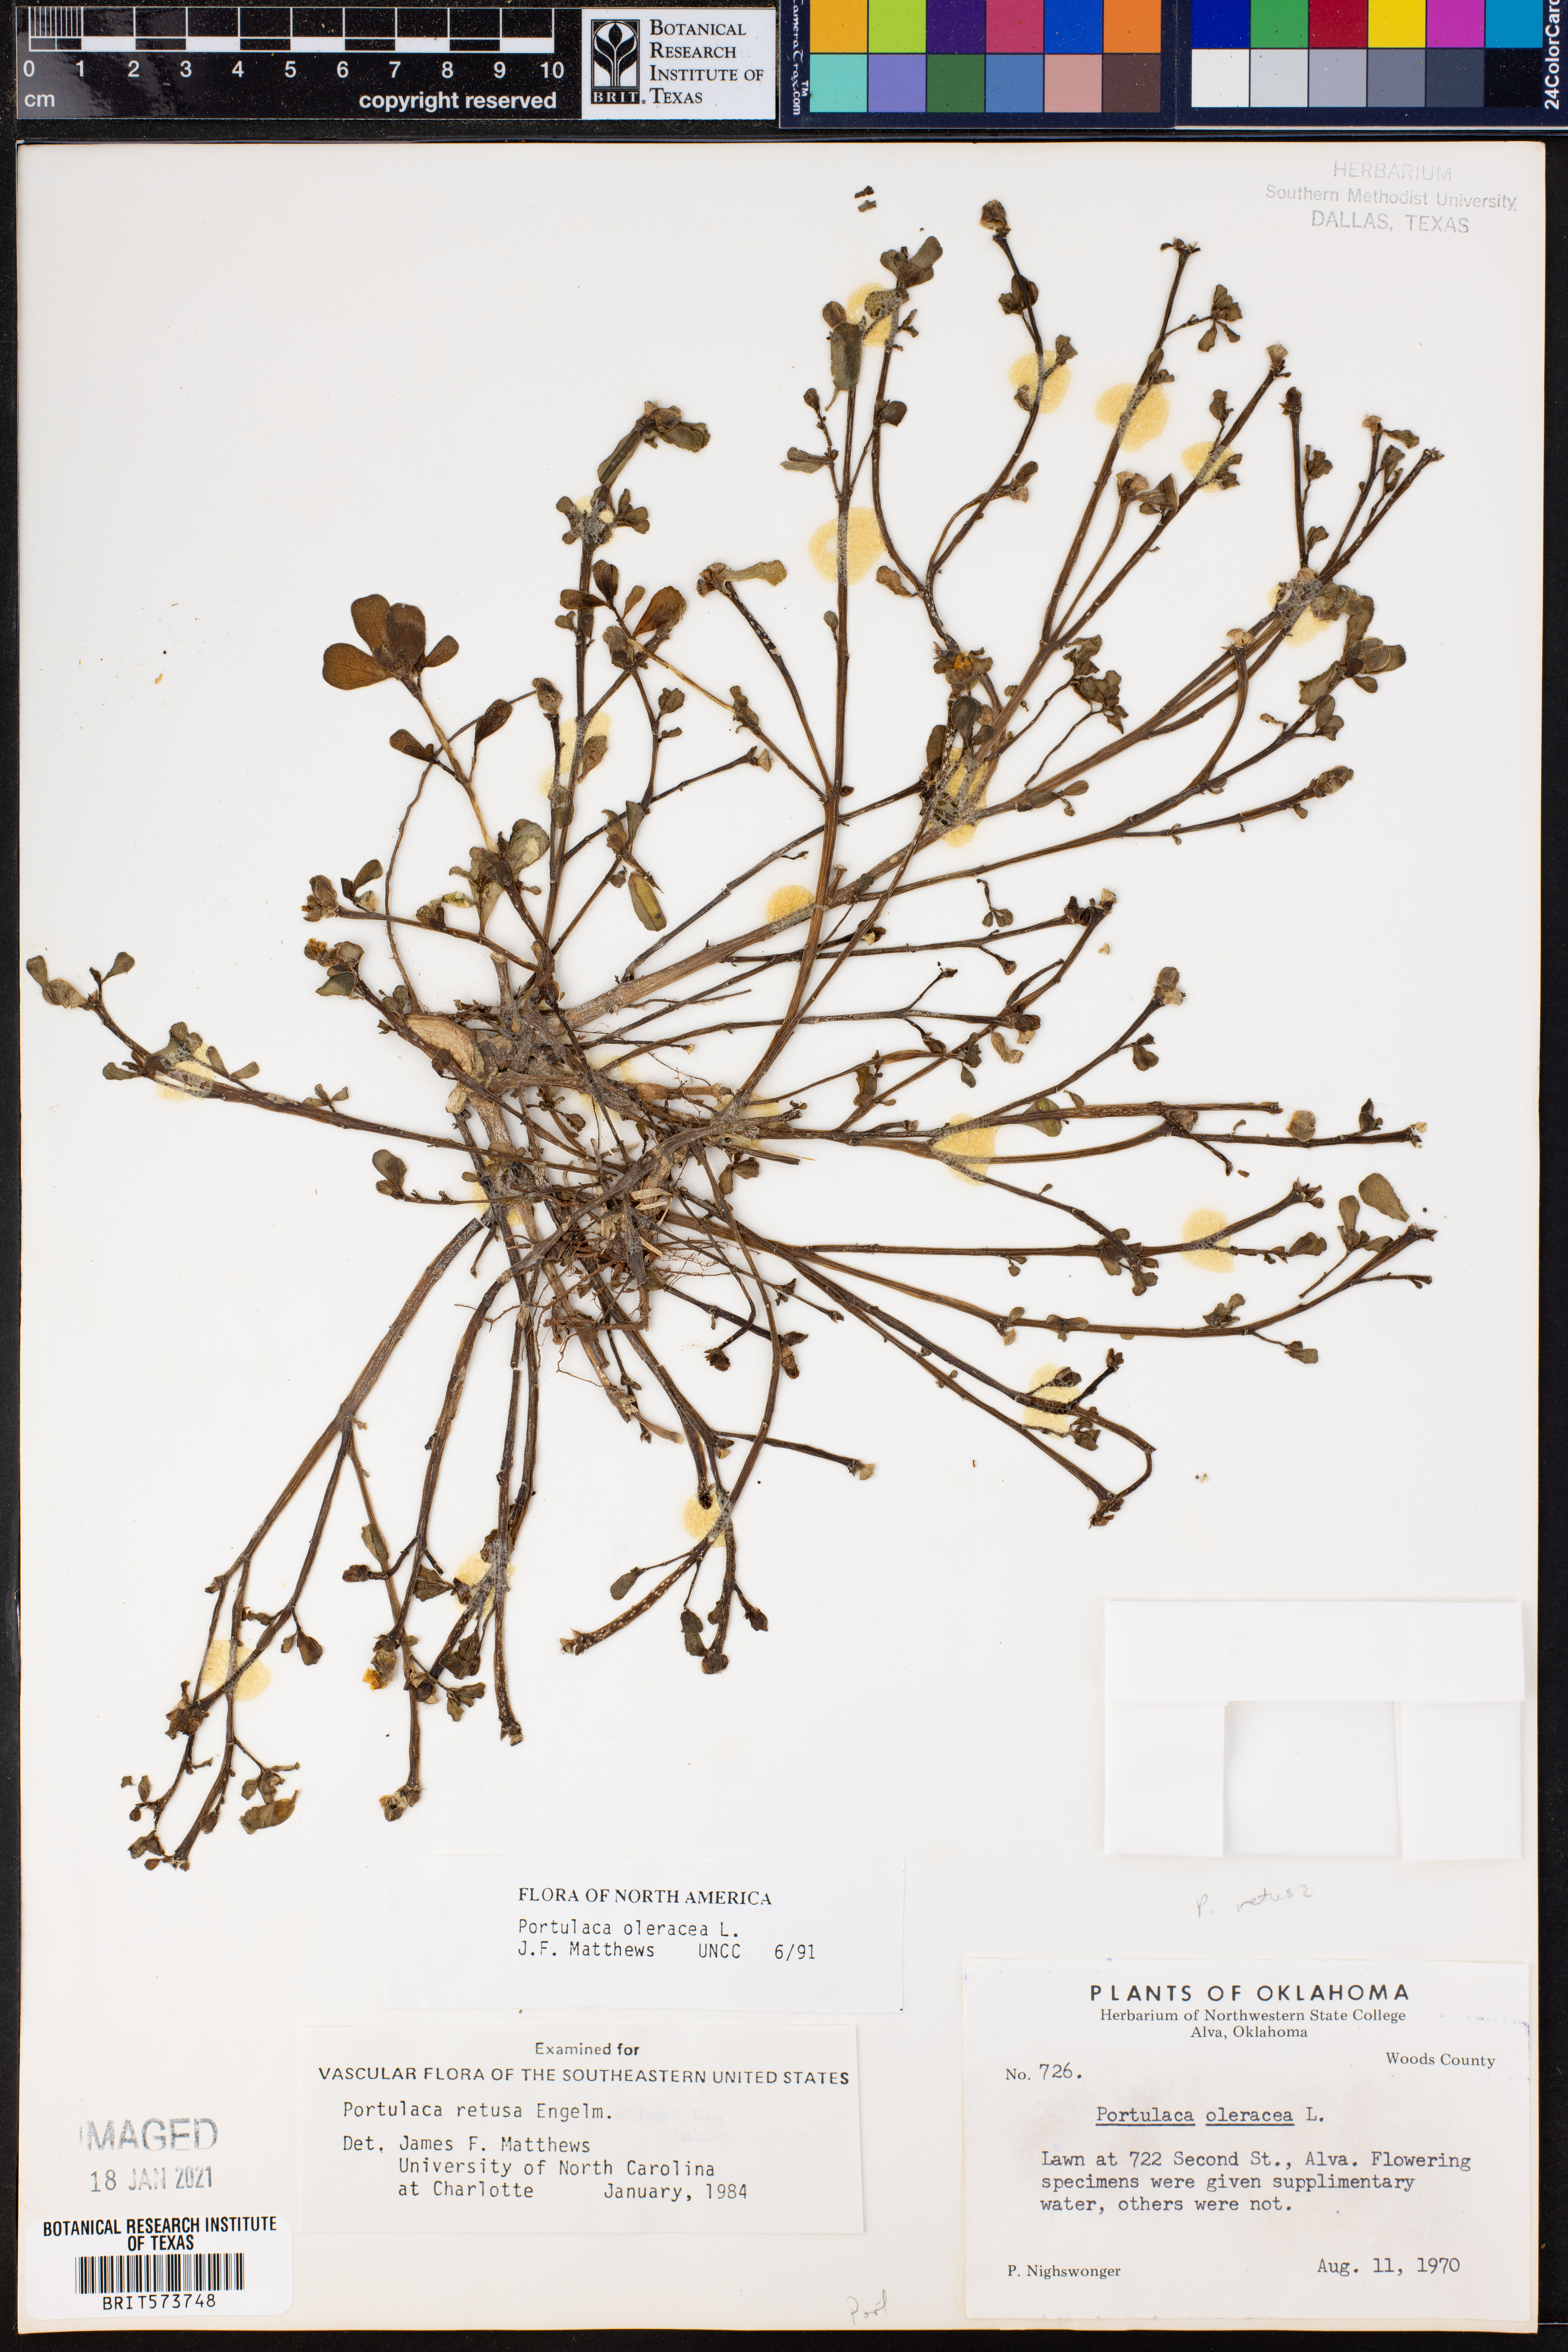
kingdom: Plantae
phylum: Tracheophyta
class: Magnoliopsida
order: Caryophyllales
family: Portulacaceae
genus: Portulaca
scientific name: Portulaca oleracea
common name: Common purslane
